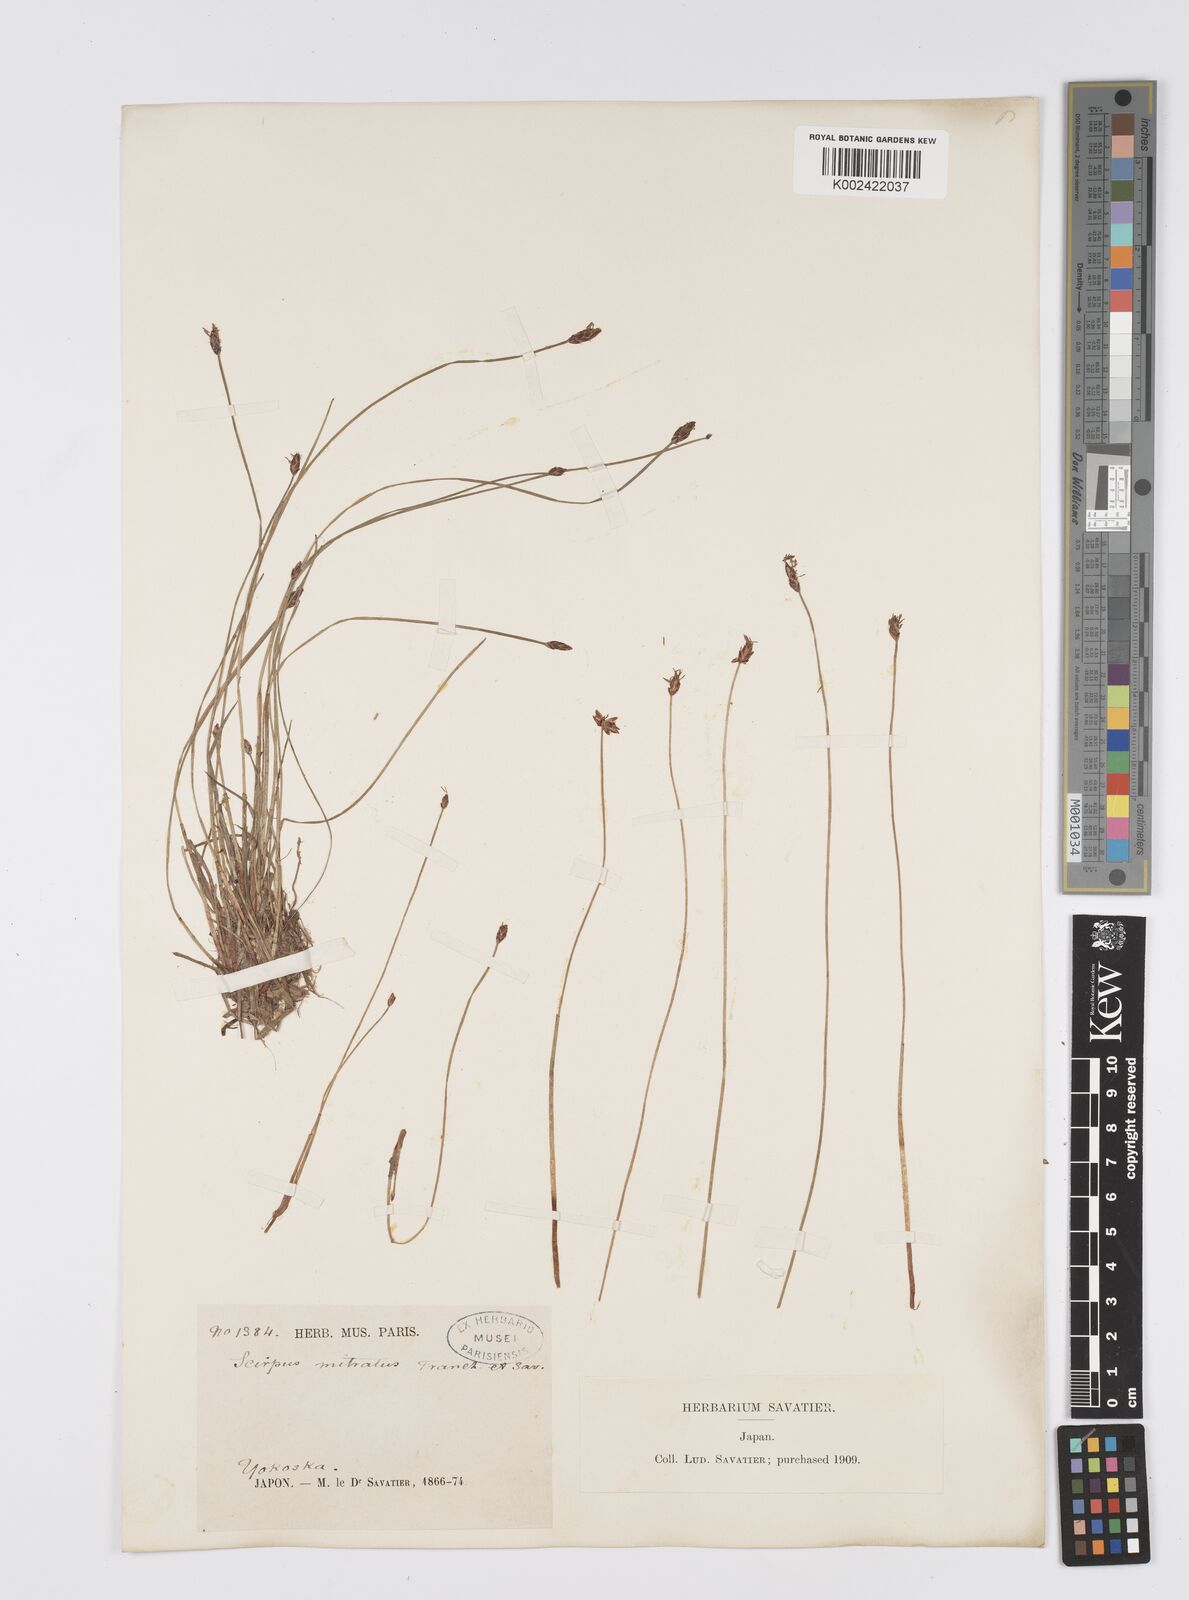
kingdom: Plantae
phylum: Tracheophyta
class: Liliopsida
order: Poales
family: Cyperaceae
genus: Eleocharis
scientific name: Eleocharis tiarata
